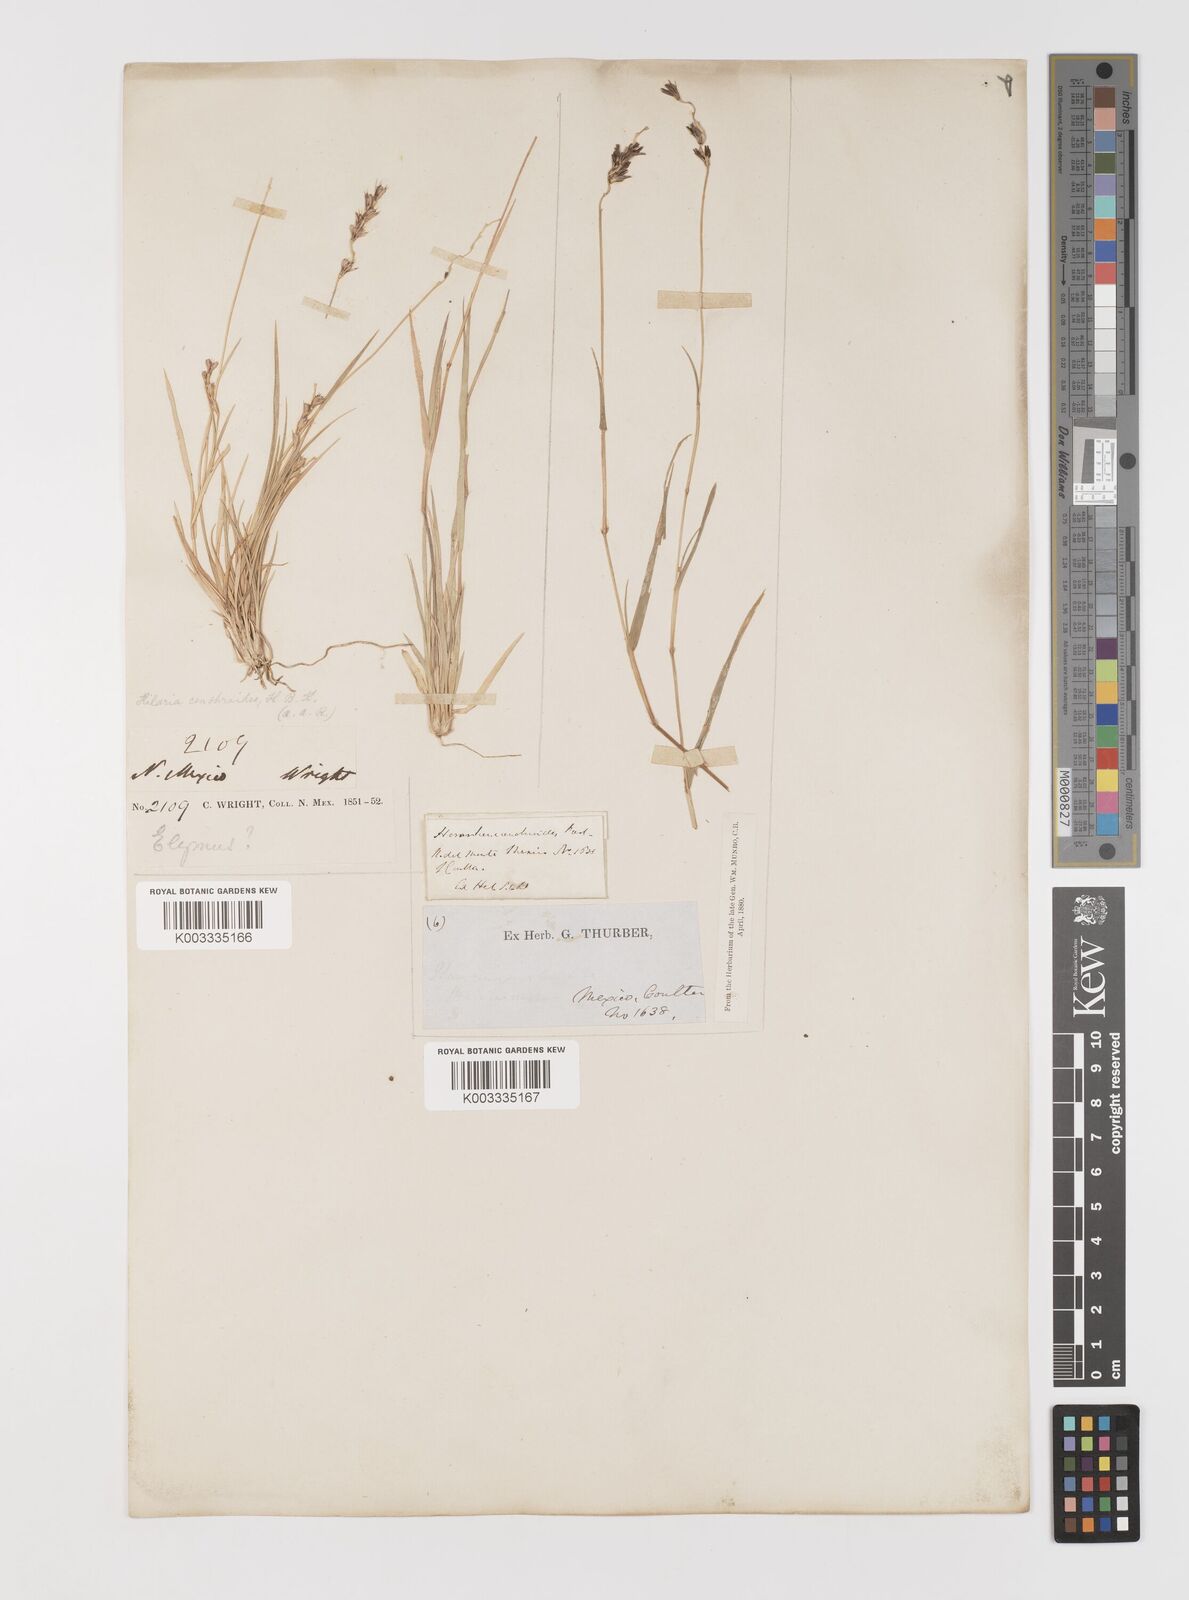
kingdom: Plantae
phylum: Tracheophyta
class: Liliopsida
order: Poales
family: Poaceae
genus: Hilaria
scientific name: Hilaria cenchroides
